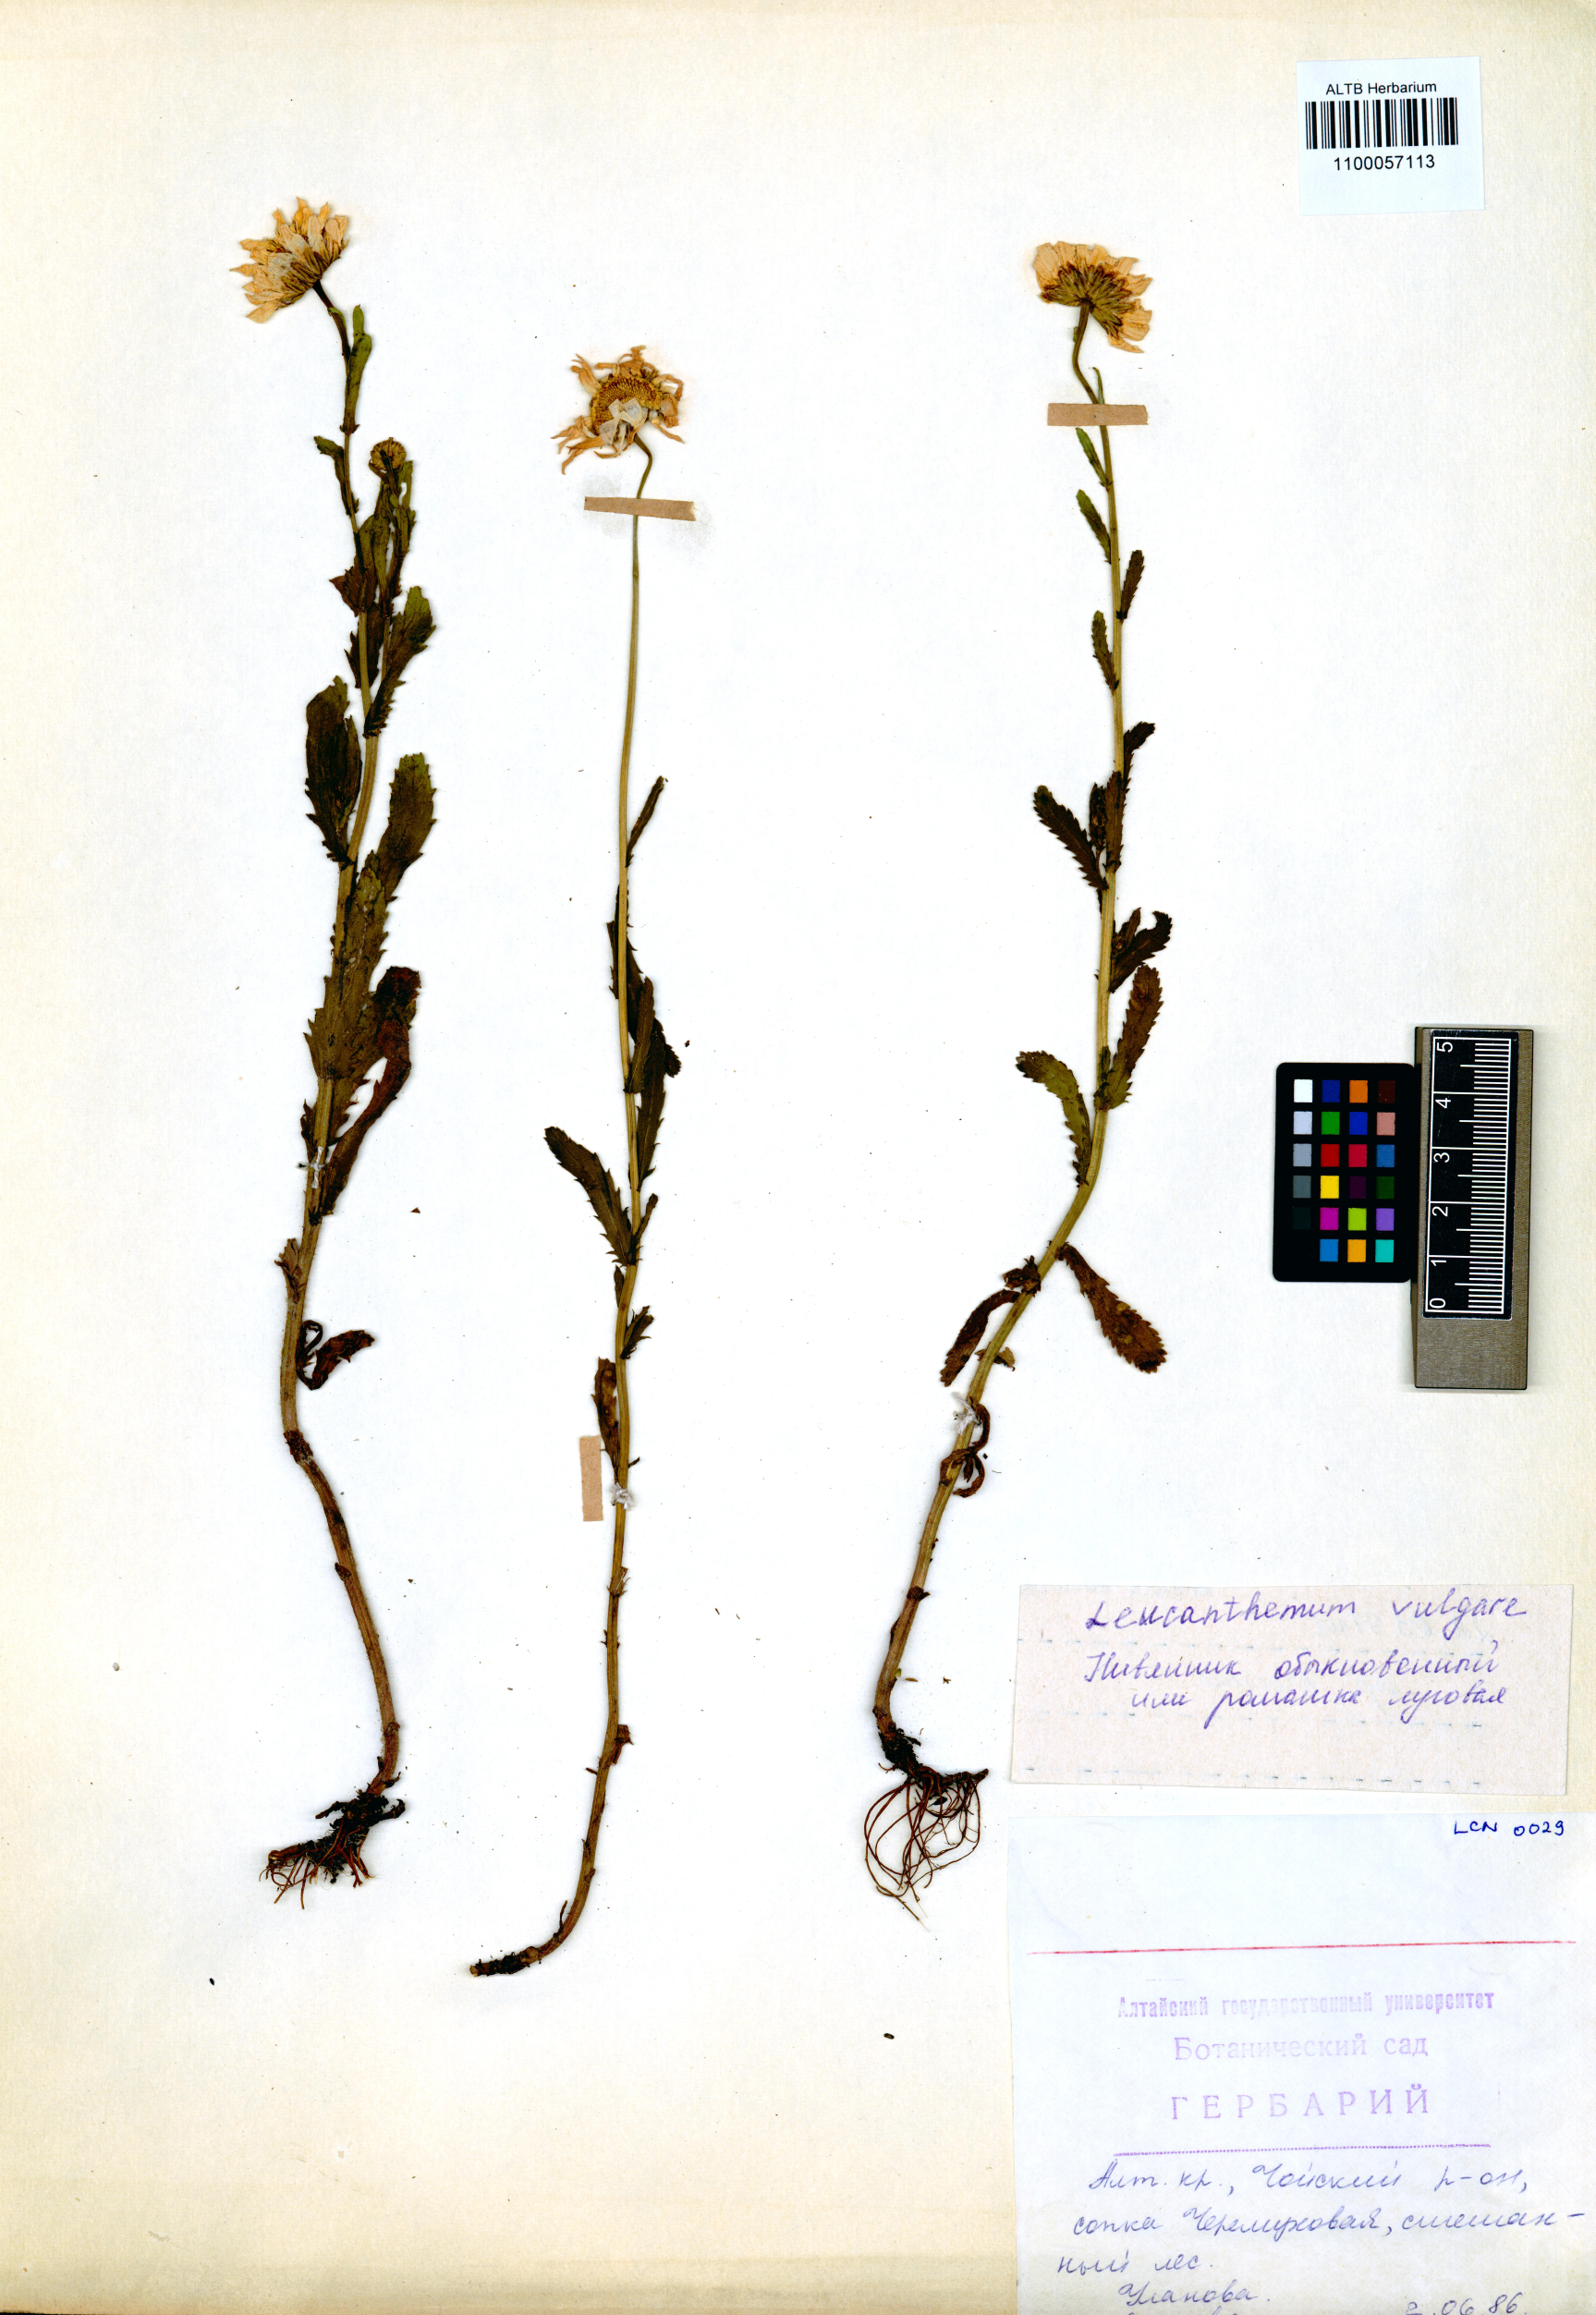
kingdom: Plantae
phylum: Tracheophyta
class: Magnoliopsida
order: Asterales
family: Asteraceae
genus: Leucanthemum
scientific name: Leucanthemum vulgare
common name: Oxeye daisy
